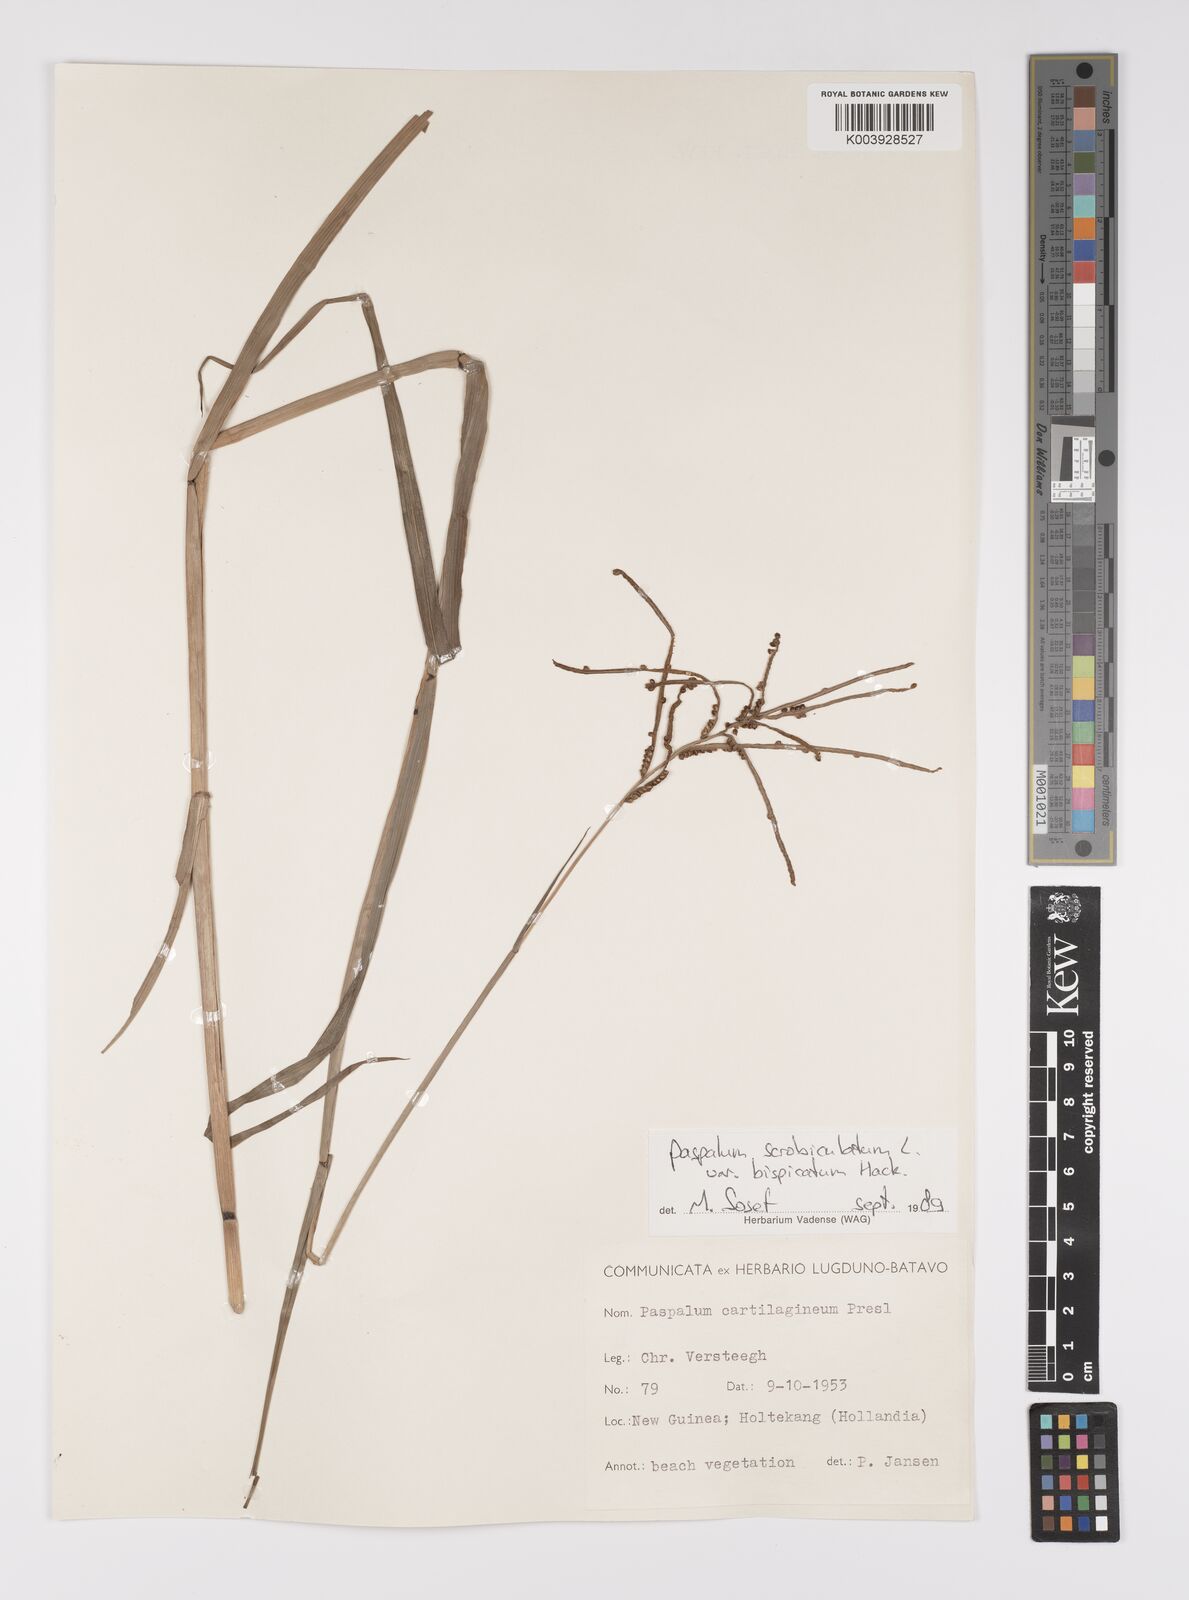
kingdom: Plantae
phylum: Tracheophyta
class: Liliopsida
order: Poales
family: Poaceae
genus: Paspalum
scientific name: Paspalum scrobiculatum
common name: Kodo millet
